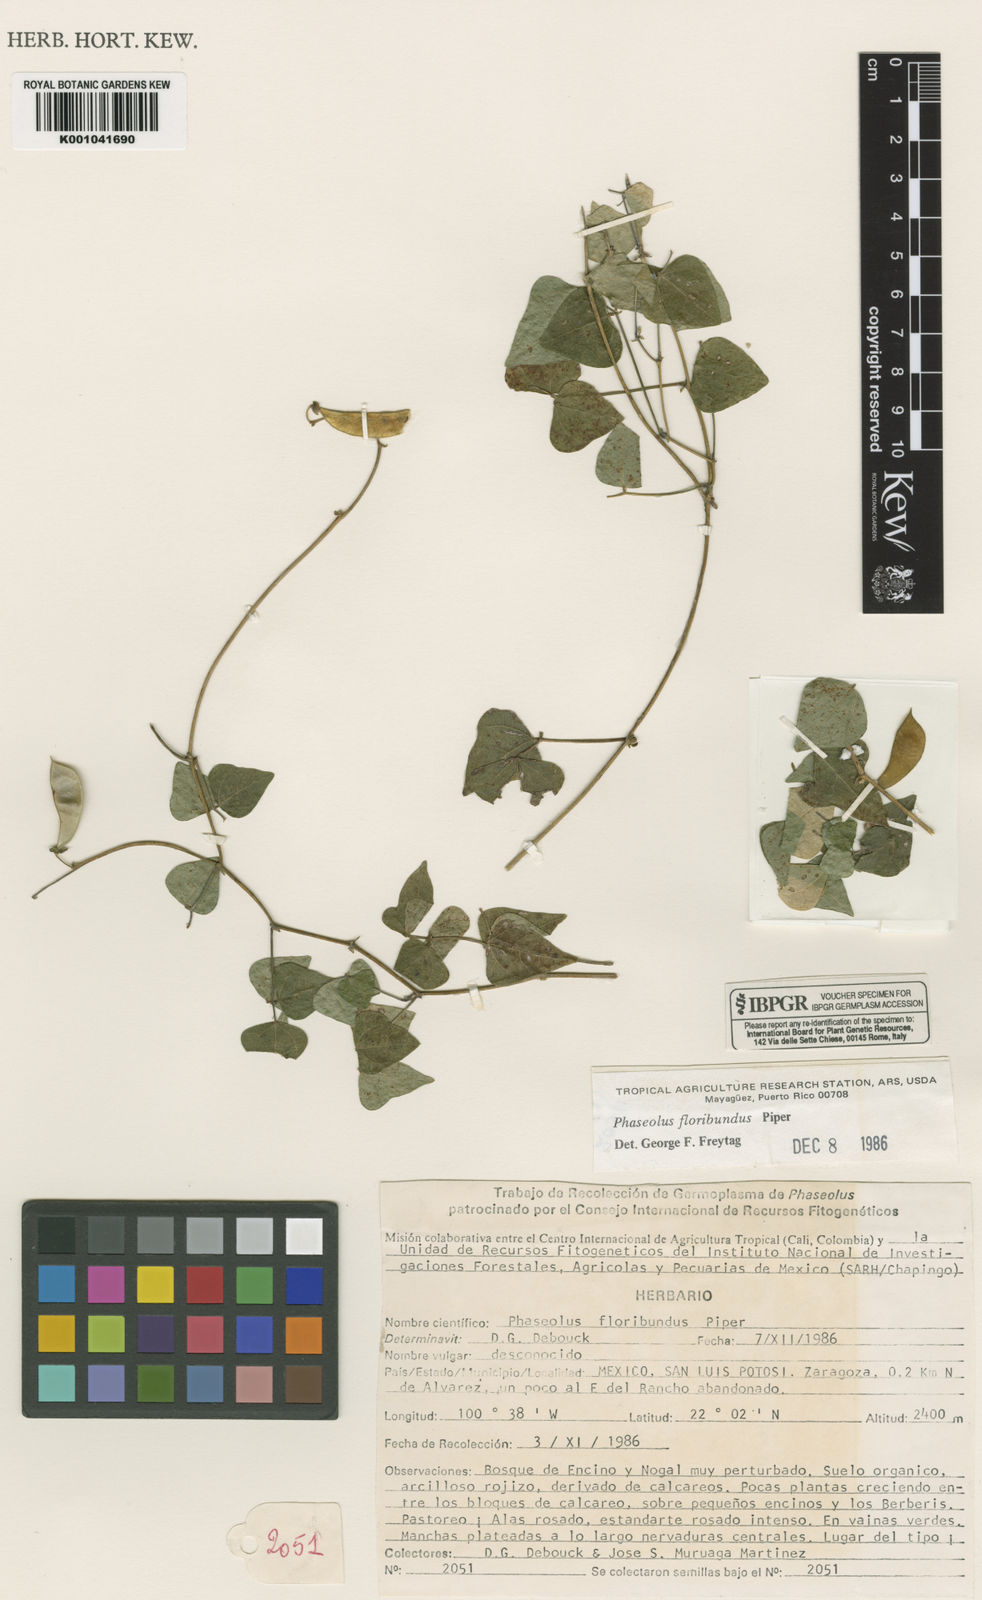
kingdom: Plantae
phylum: Tracheophyta
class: Magnoliopsida
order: Fabales
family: Fabaceae
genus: Phaseolus
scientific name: Phaseolus pedicellatus
